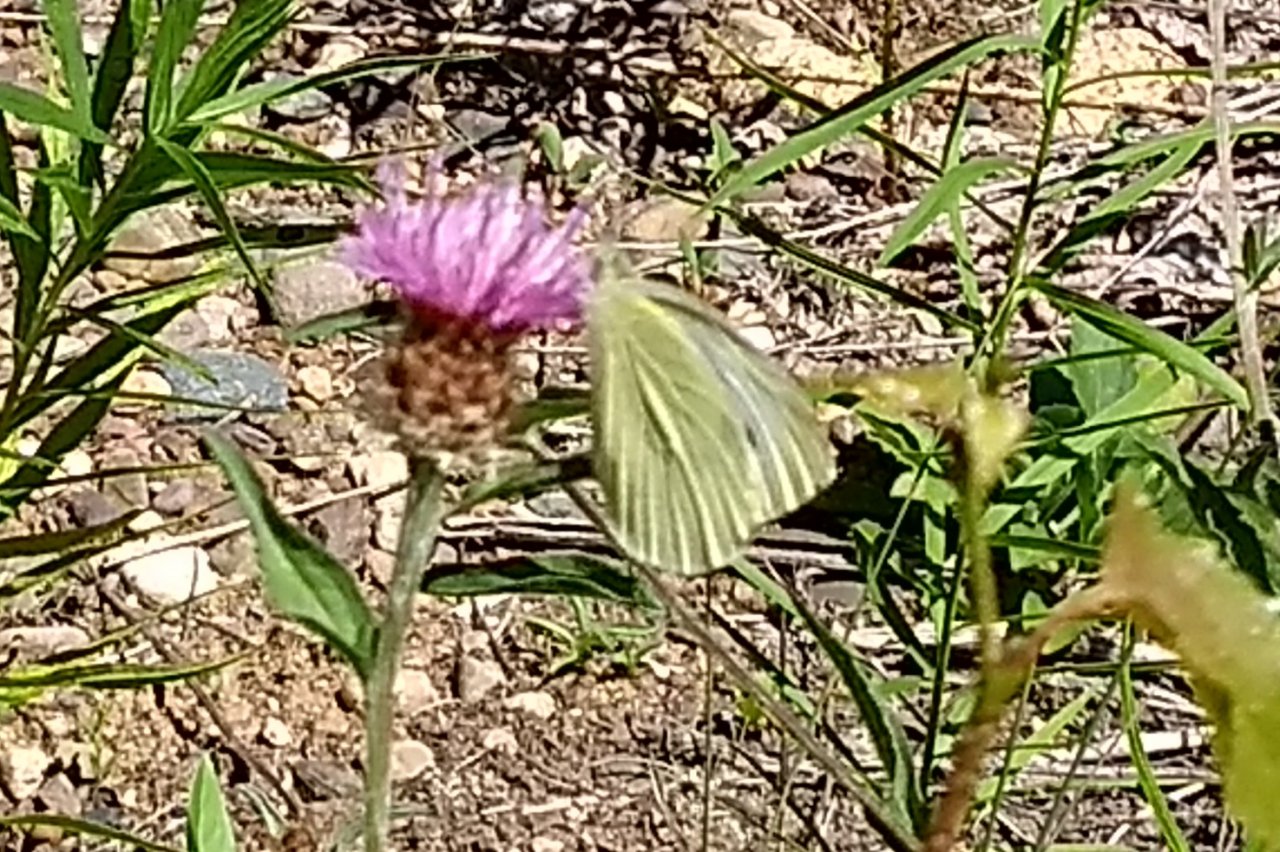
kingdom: Animalia
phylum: Arthropoda
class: Insecta
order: Lepidoptera
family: Pieridae
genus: Pieris
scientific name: Pieris rapae
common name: Cabbage White
